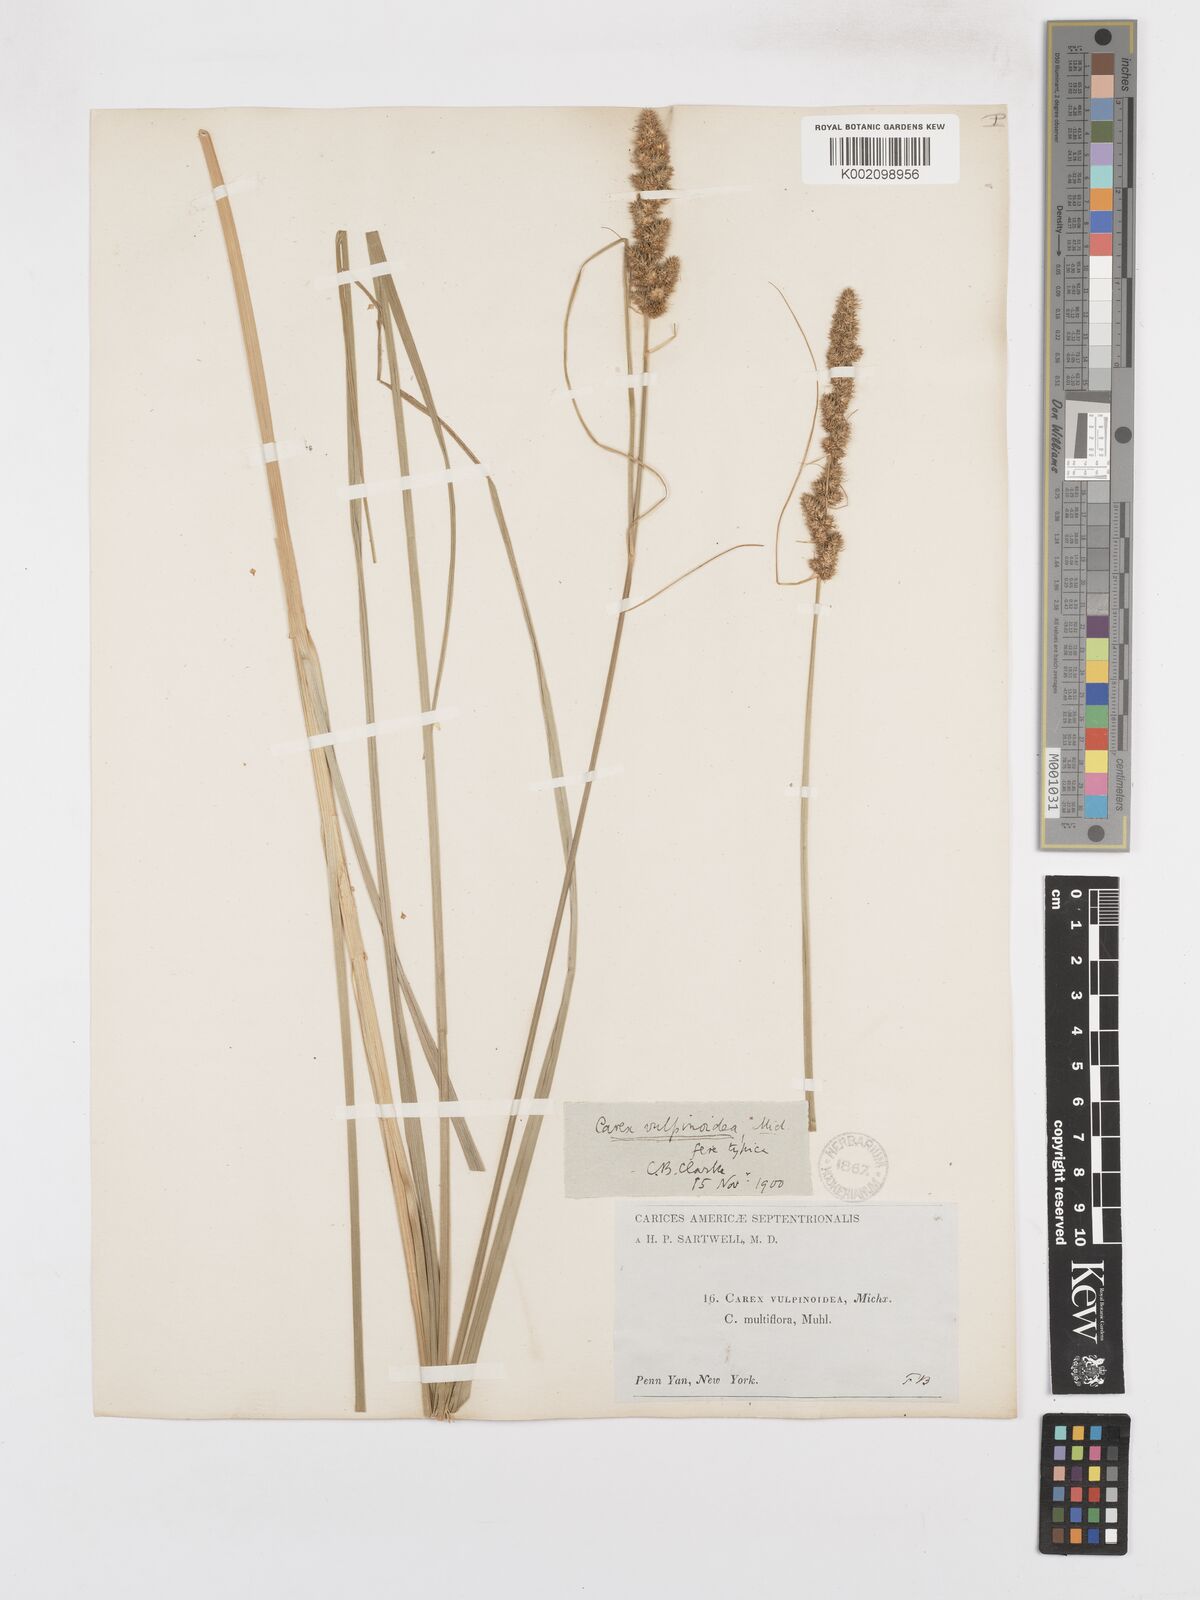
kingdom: Plantae
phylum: Tracheophyta
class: Liliopsida
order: Poales
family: Cyperaceae
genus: Carex
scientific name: Carex vulpinoidea
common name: American fox-sedge
